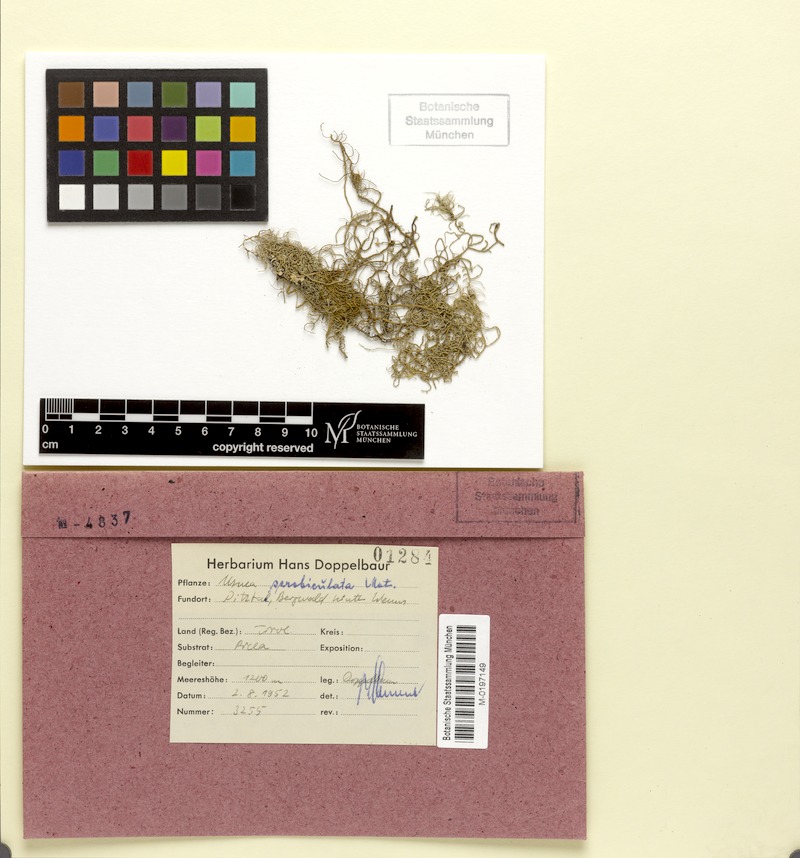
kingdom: Fungi
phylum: Ascomycota
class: Lecanoromycetes
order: Lecanorales
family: Parmeliaceae
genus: Usnea
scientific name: Usnea barbata
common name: Old man's beard lichen
